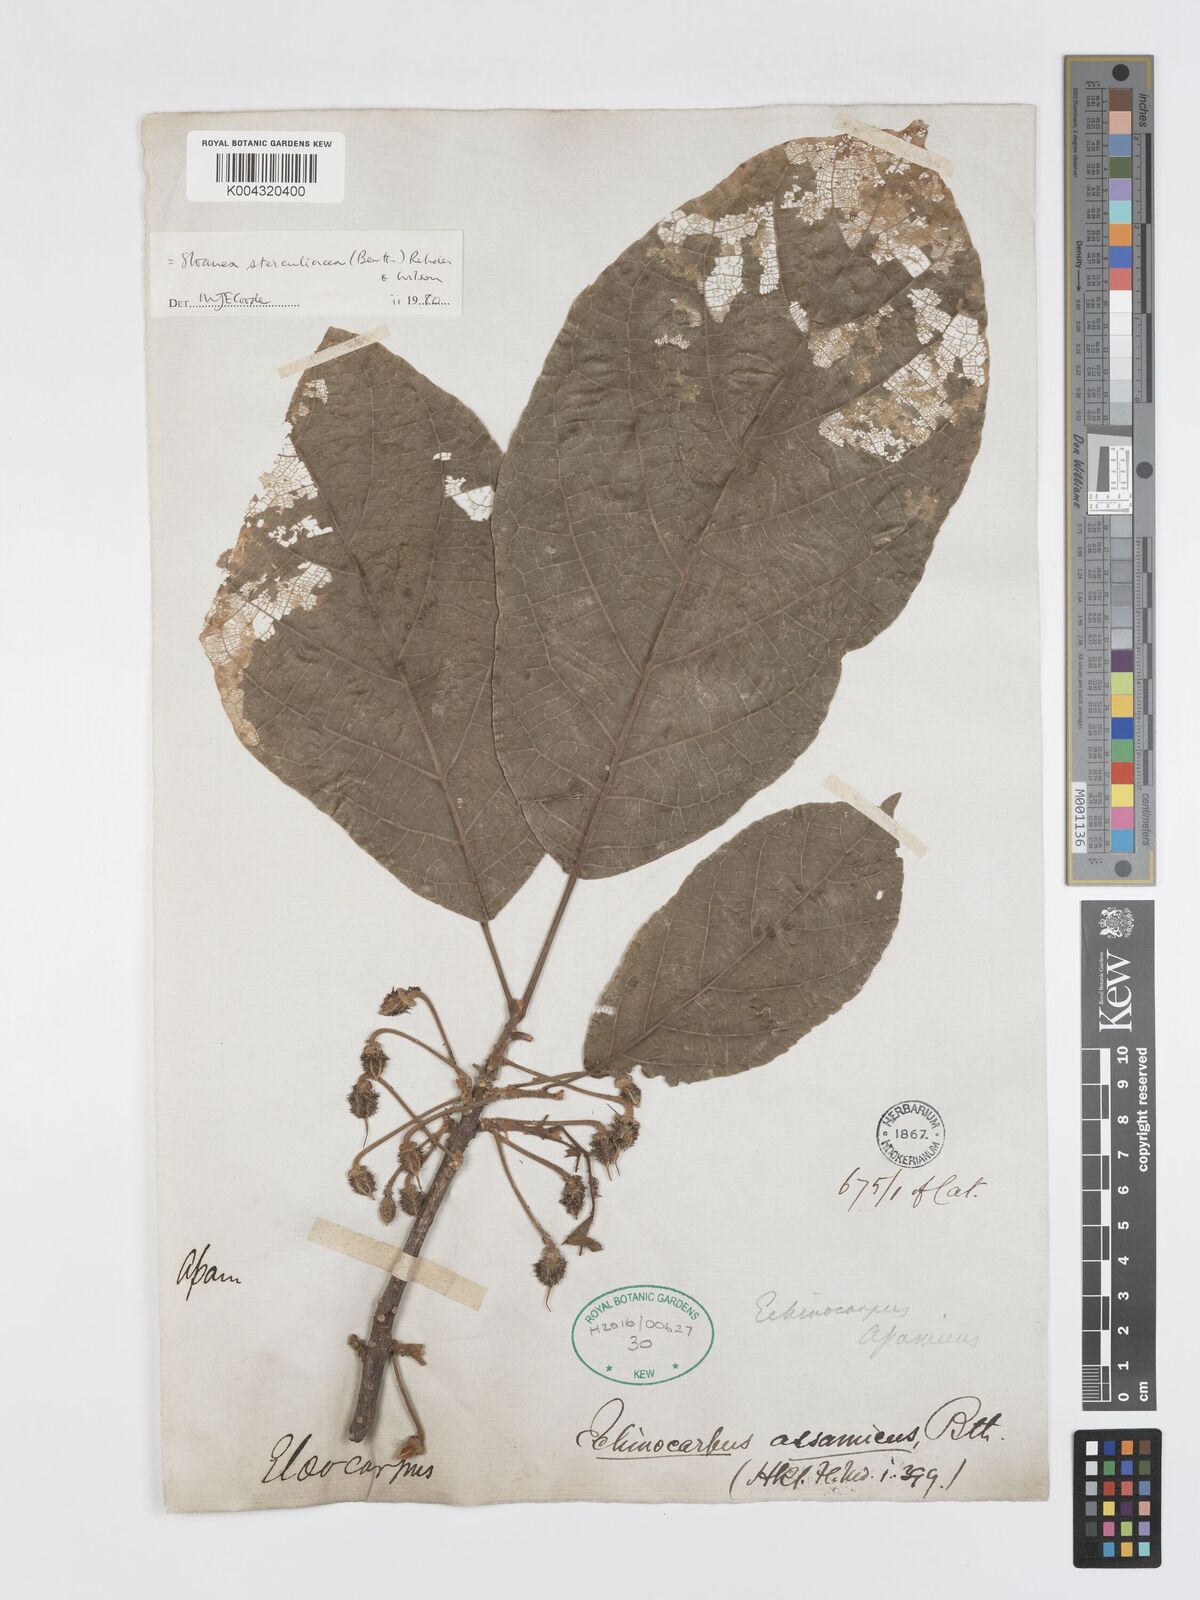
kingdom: Plantae
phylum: Tracheophyta
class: Magnoliopsida
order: Oxalidales
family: Elaeocarpaceae
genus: Sloanea
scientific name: Sloanea sterculiacea
